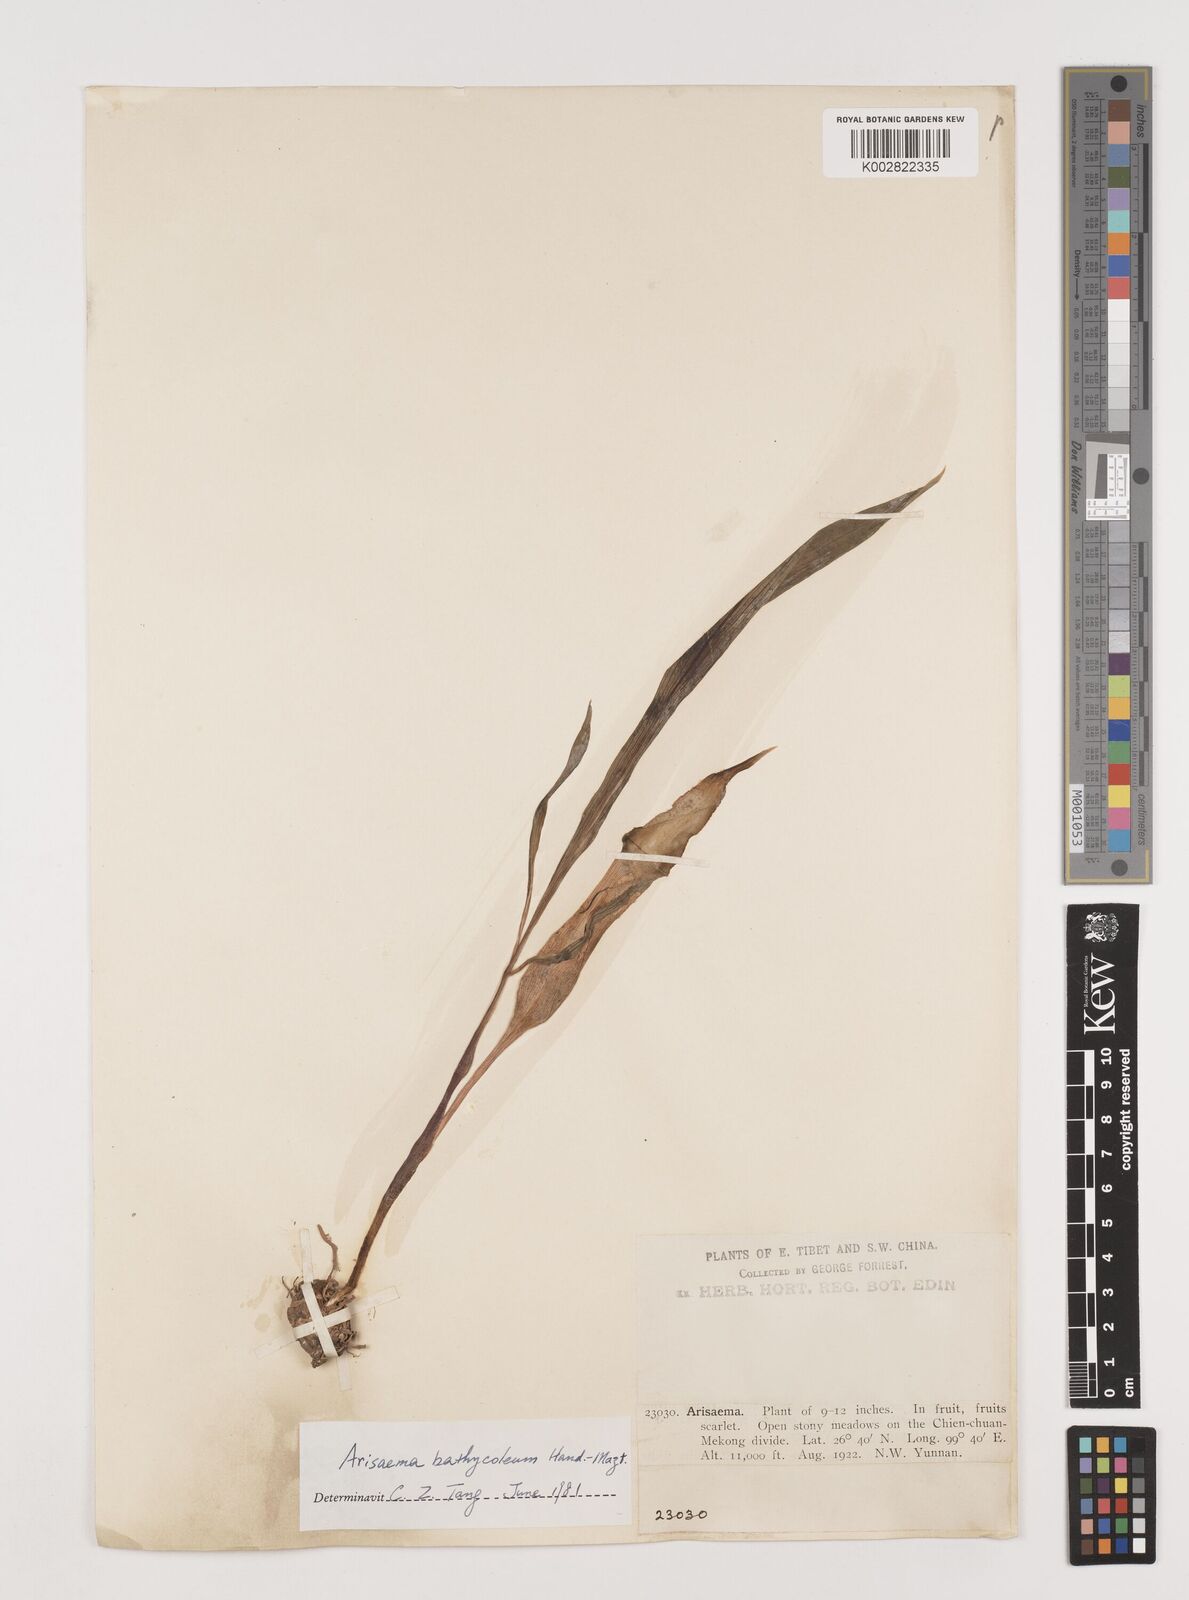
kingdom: Plantae
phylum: Tracheophyta
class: Liliopsida
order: Alismatales
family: Araceae
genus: Arisaema
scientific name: Arisaema bathycoleum
